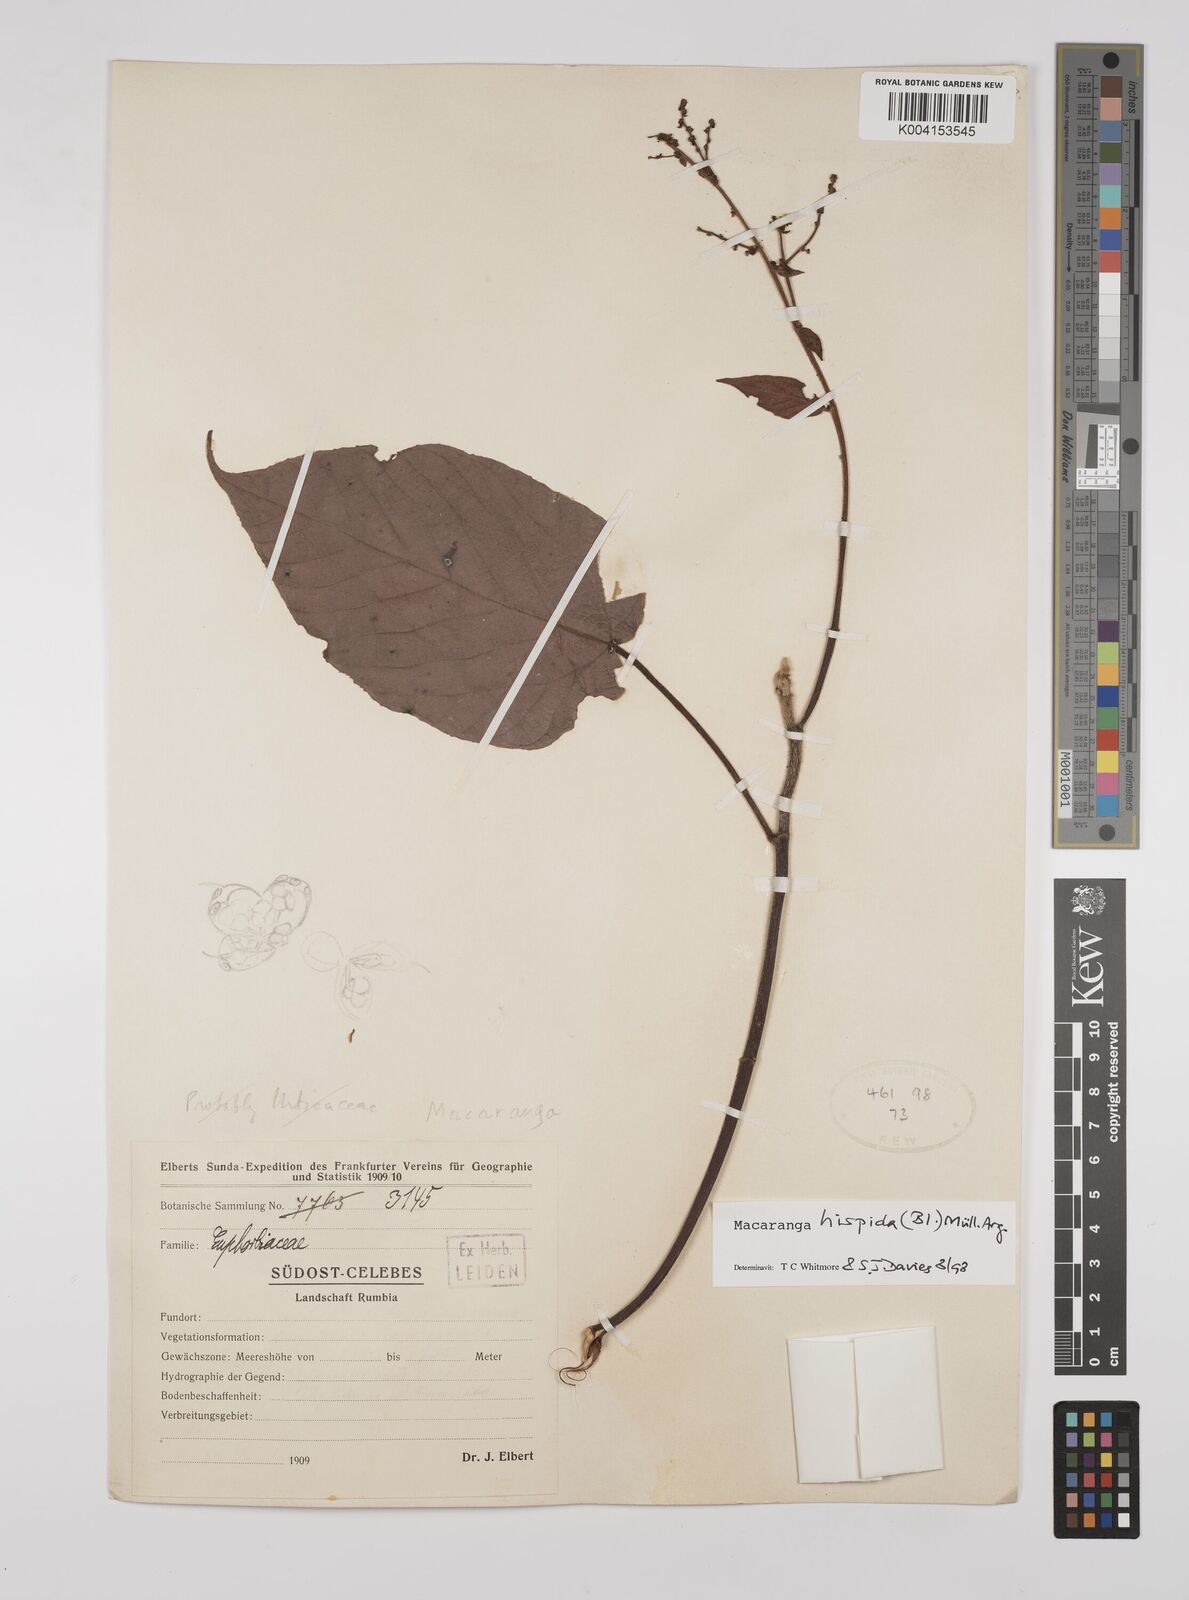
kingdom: Plantae
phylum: Tracheophyta
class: Magnoliopsida
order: Malpighiales
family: Euphorbiaceae
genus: Macaranga
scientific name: Macaranga hispida
